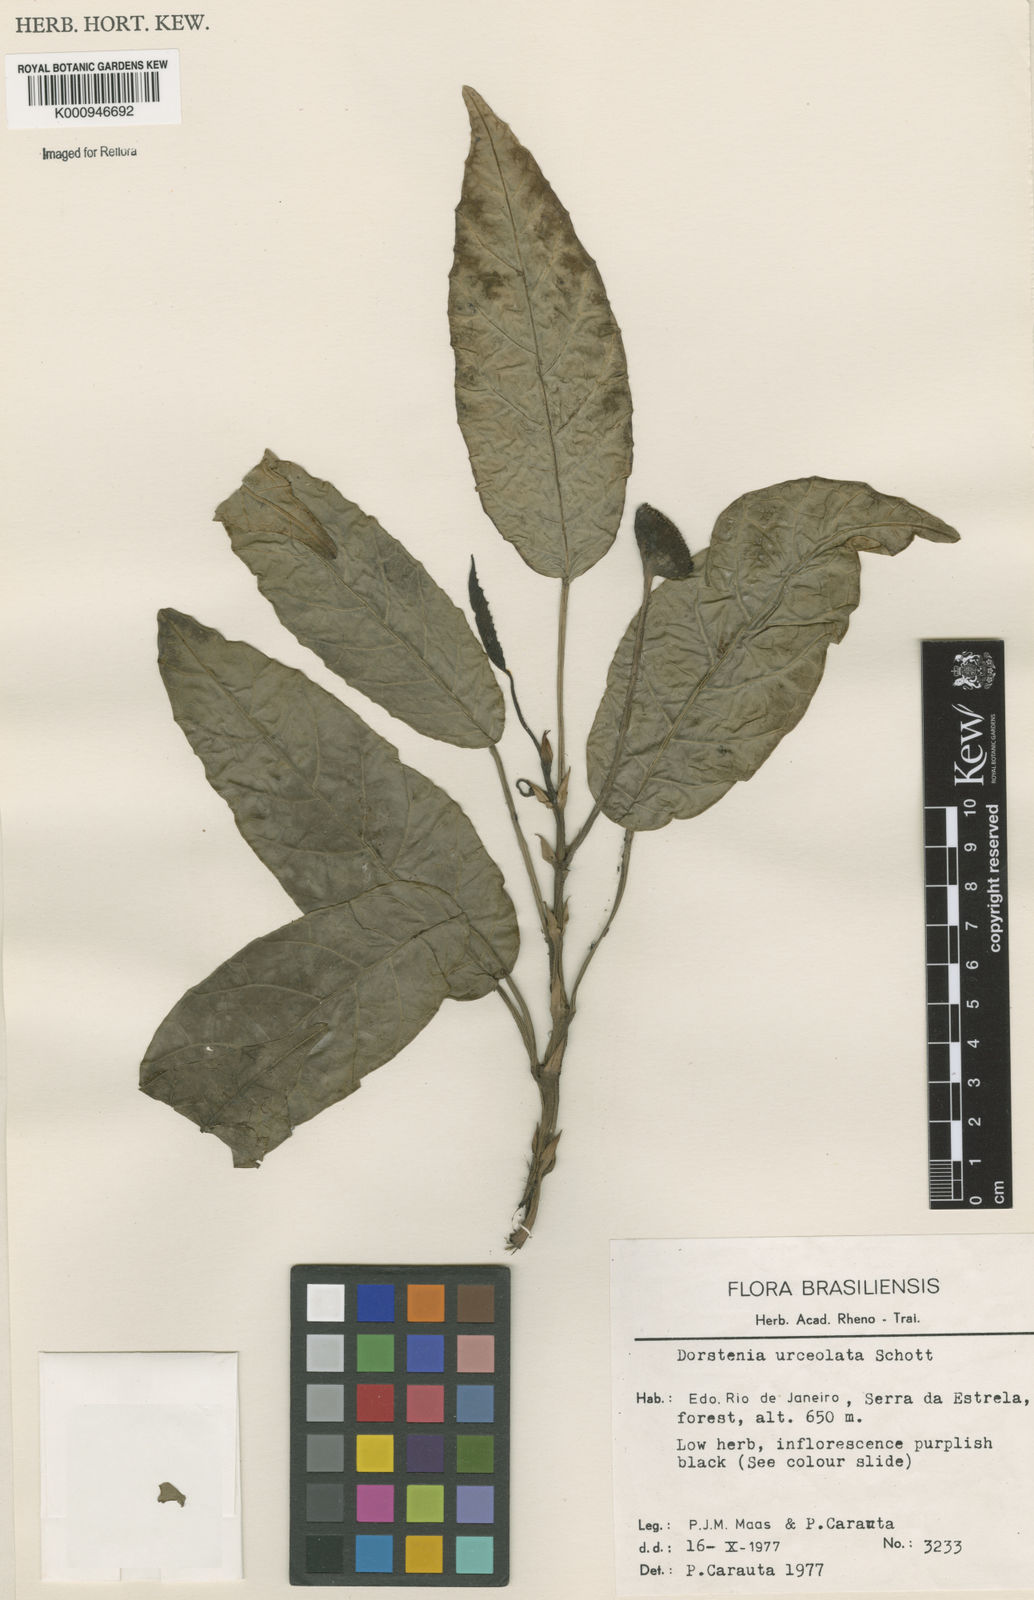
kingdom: Plantae
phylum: Tracheophyta
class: Magnoliopsida
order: Rosales
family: Moraceae
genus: Dorstenia
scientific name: Dorstenia urceolata
